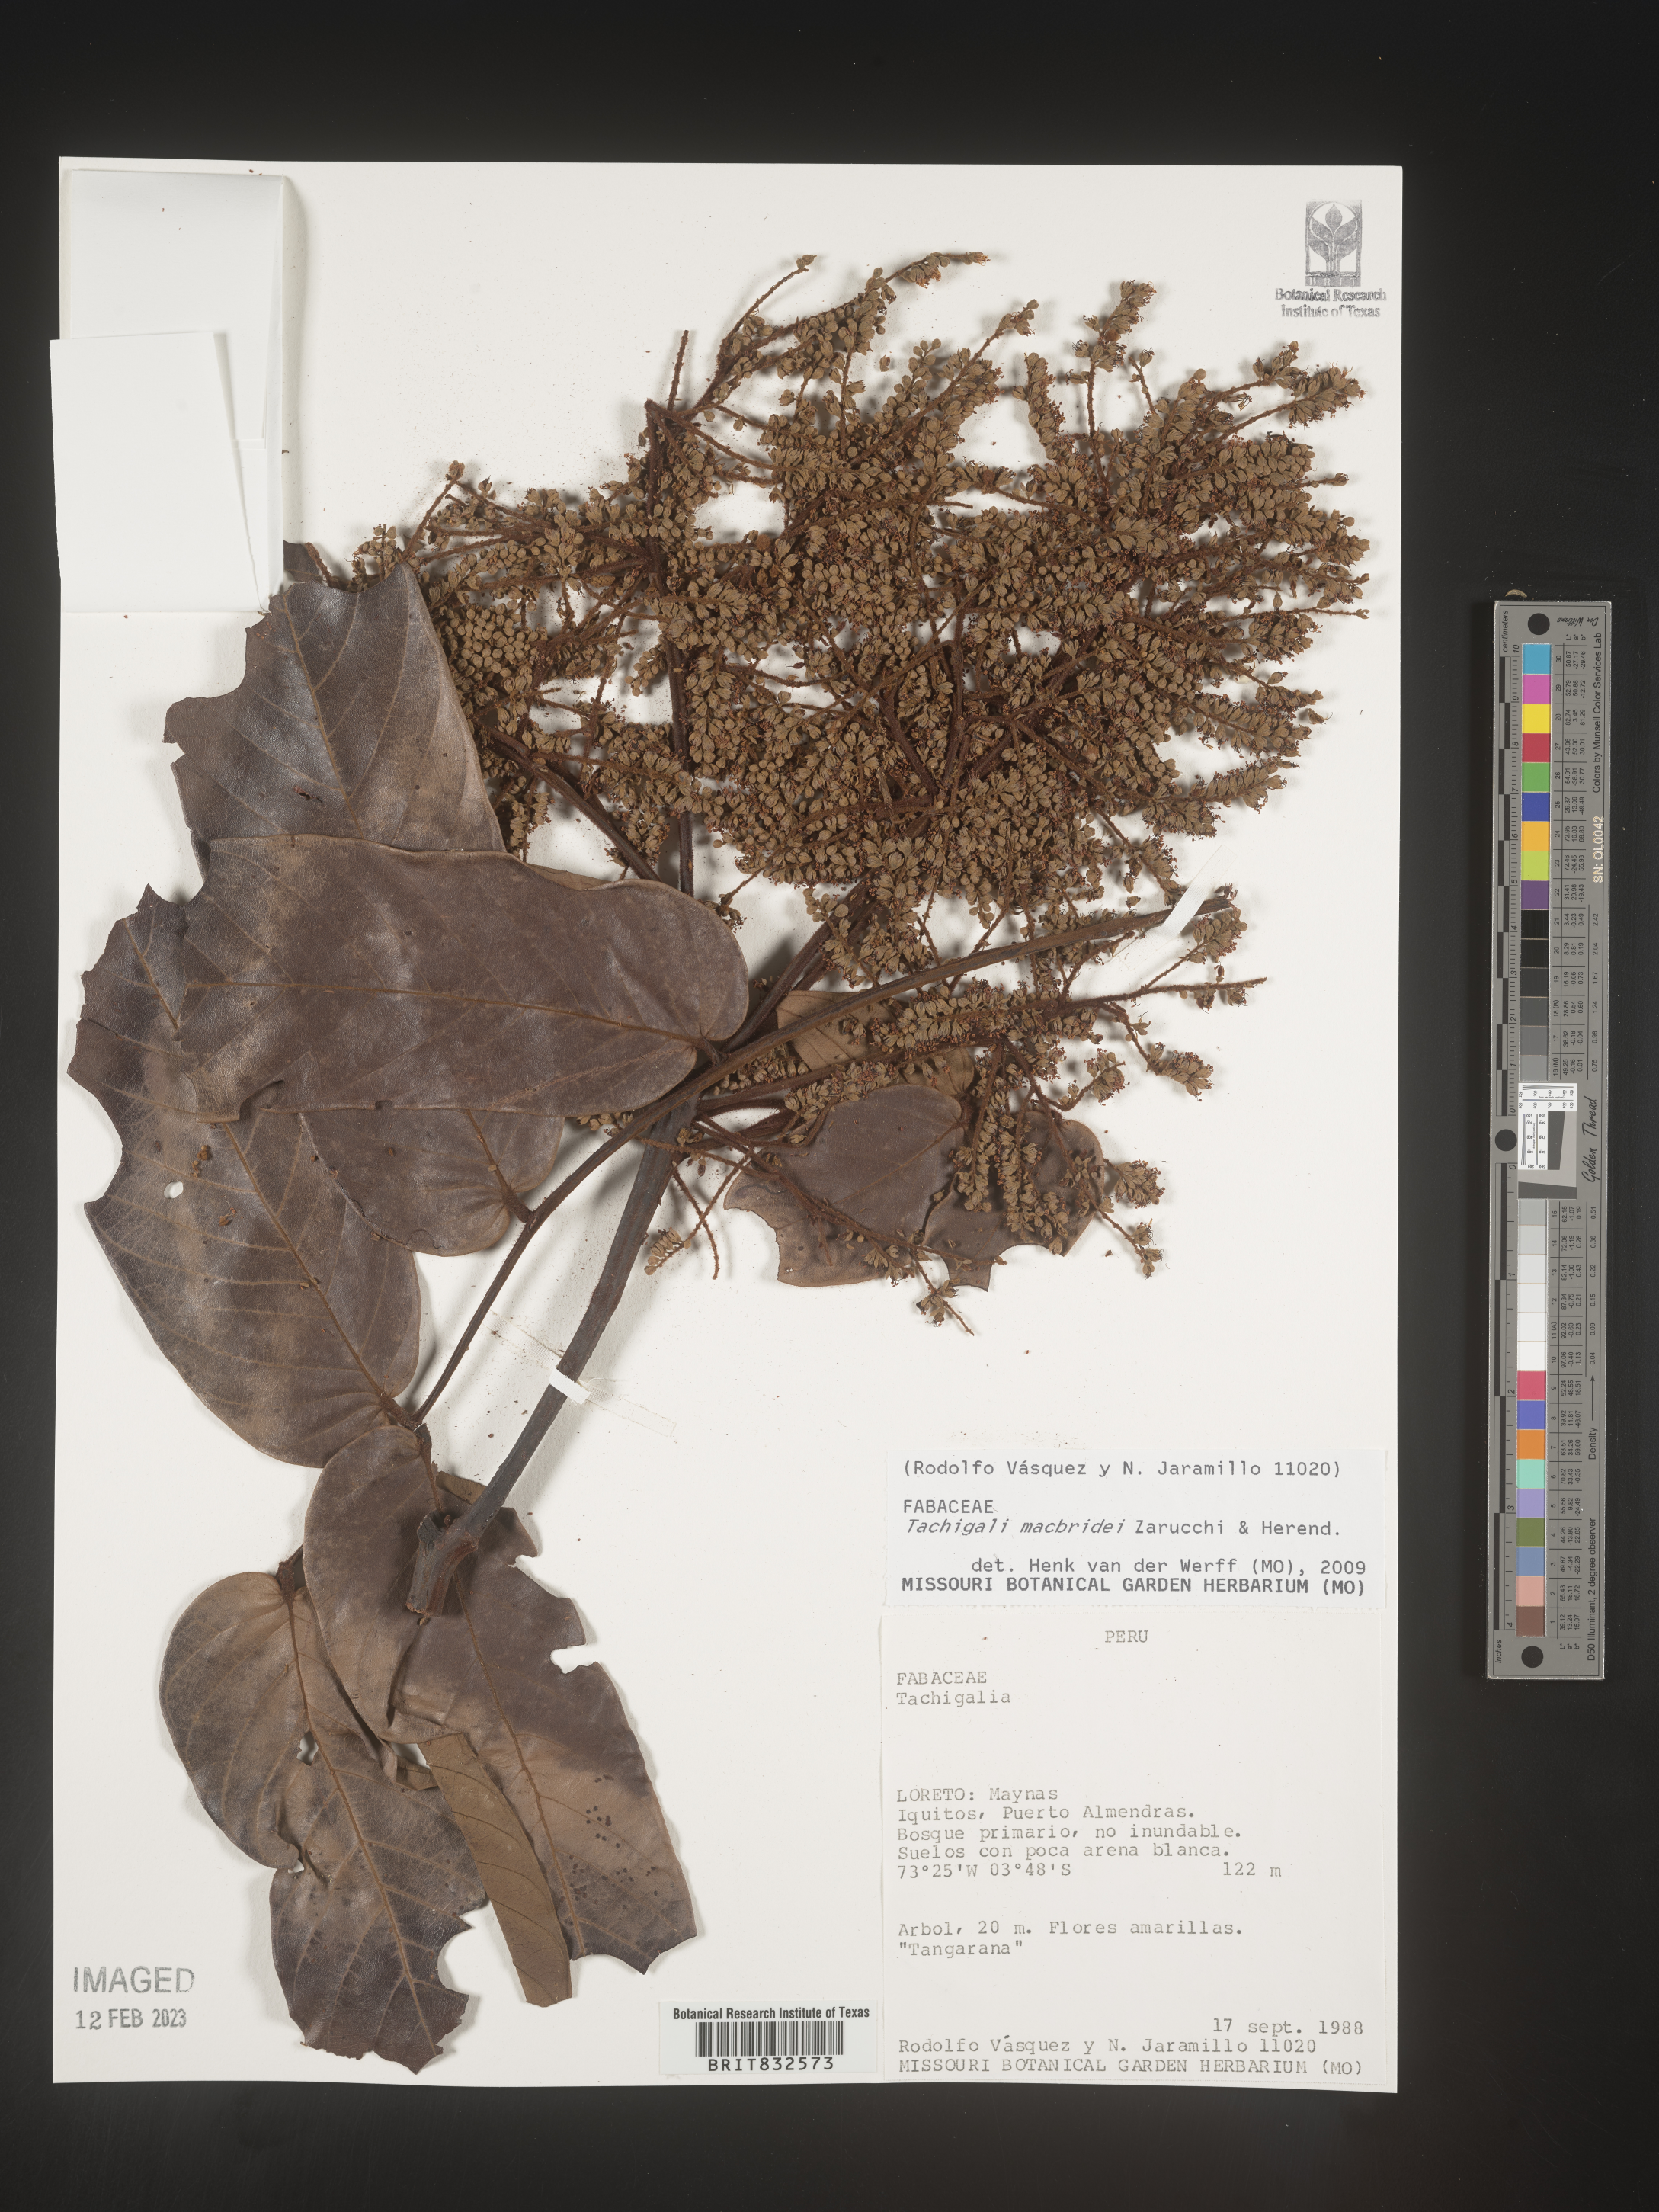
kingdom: Plantae
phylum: Tracheophyta
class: Magnoliopsida
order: Fabales
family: Fabaceae
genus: Tachigali
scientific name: Tachigali macbridei
